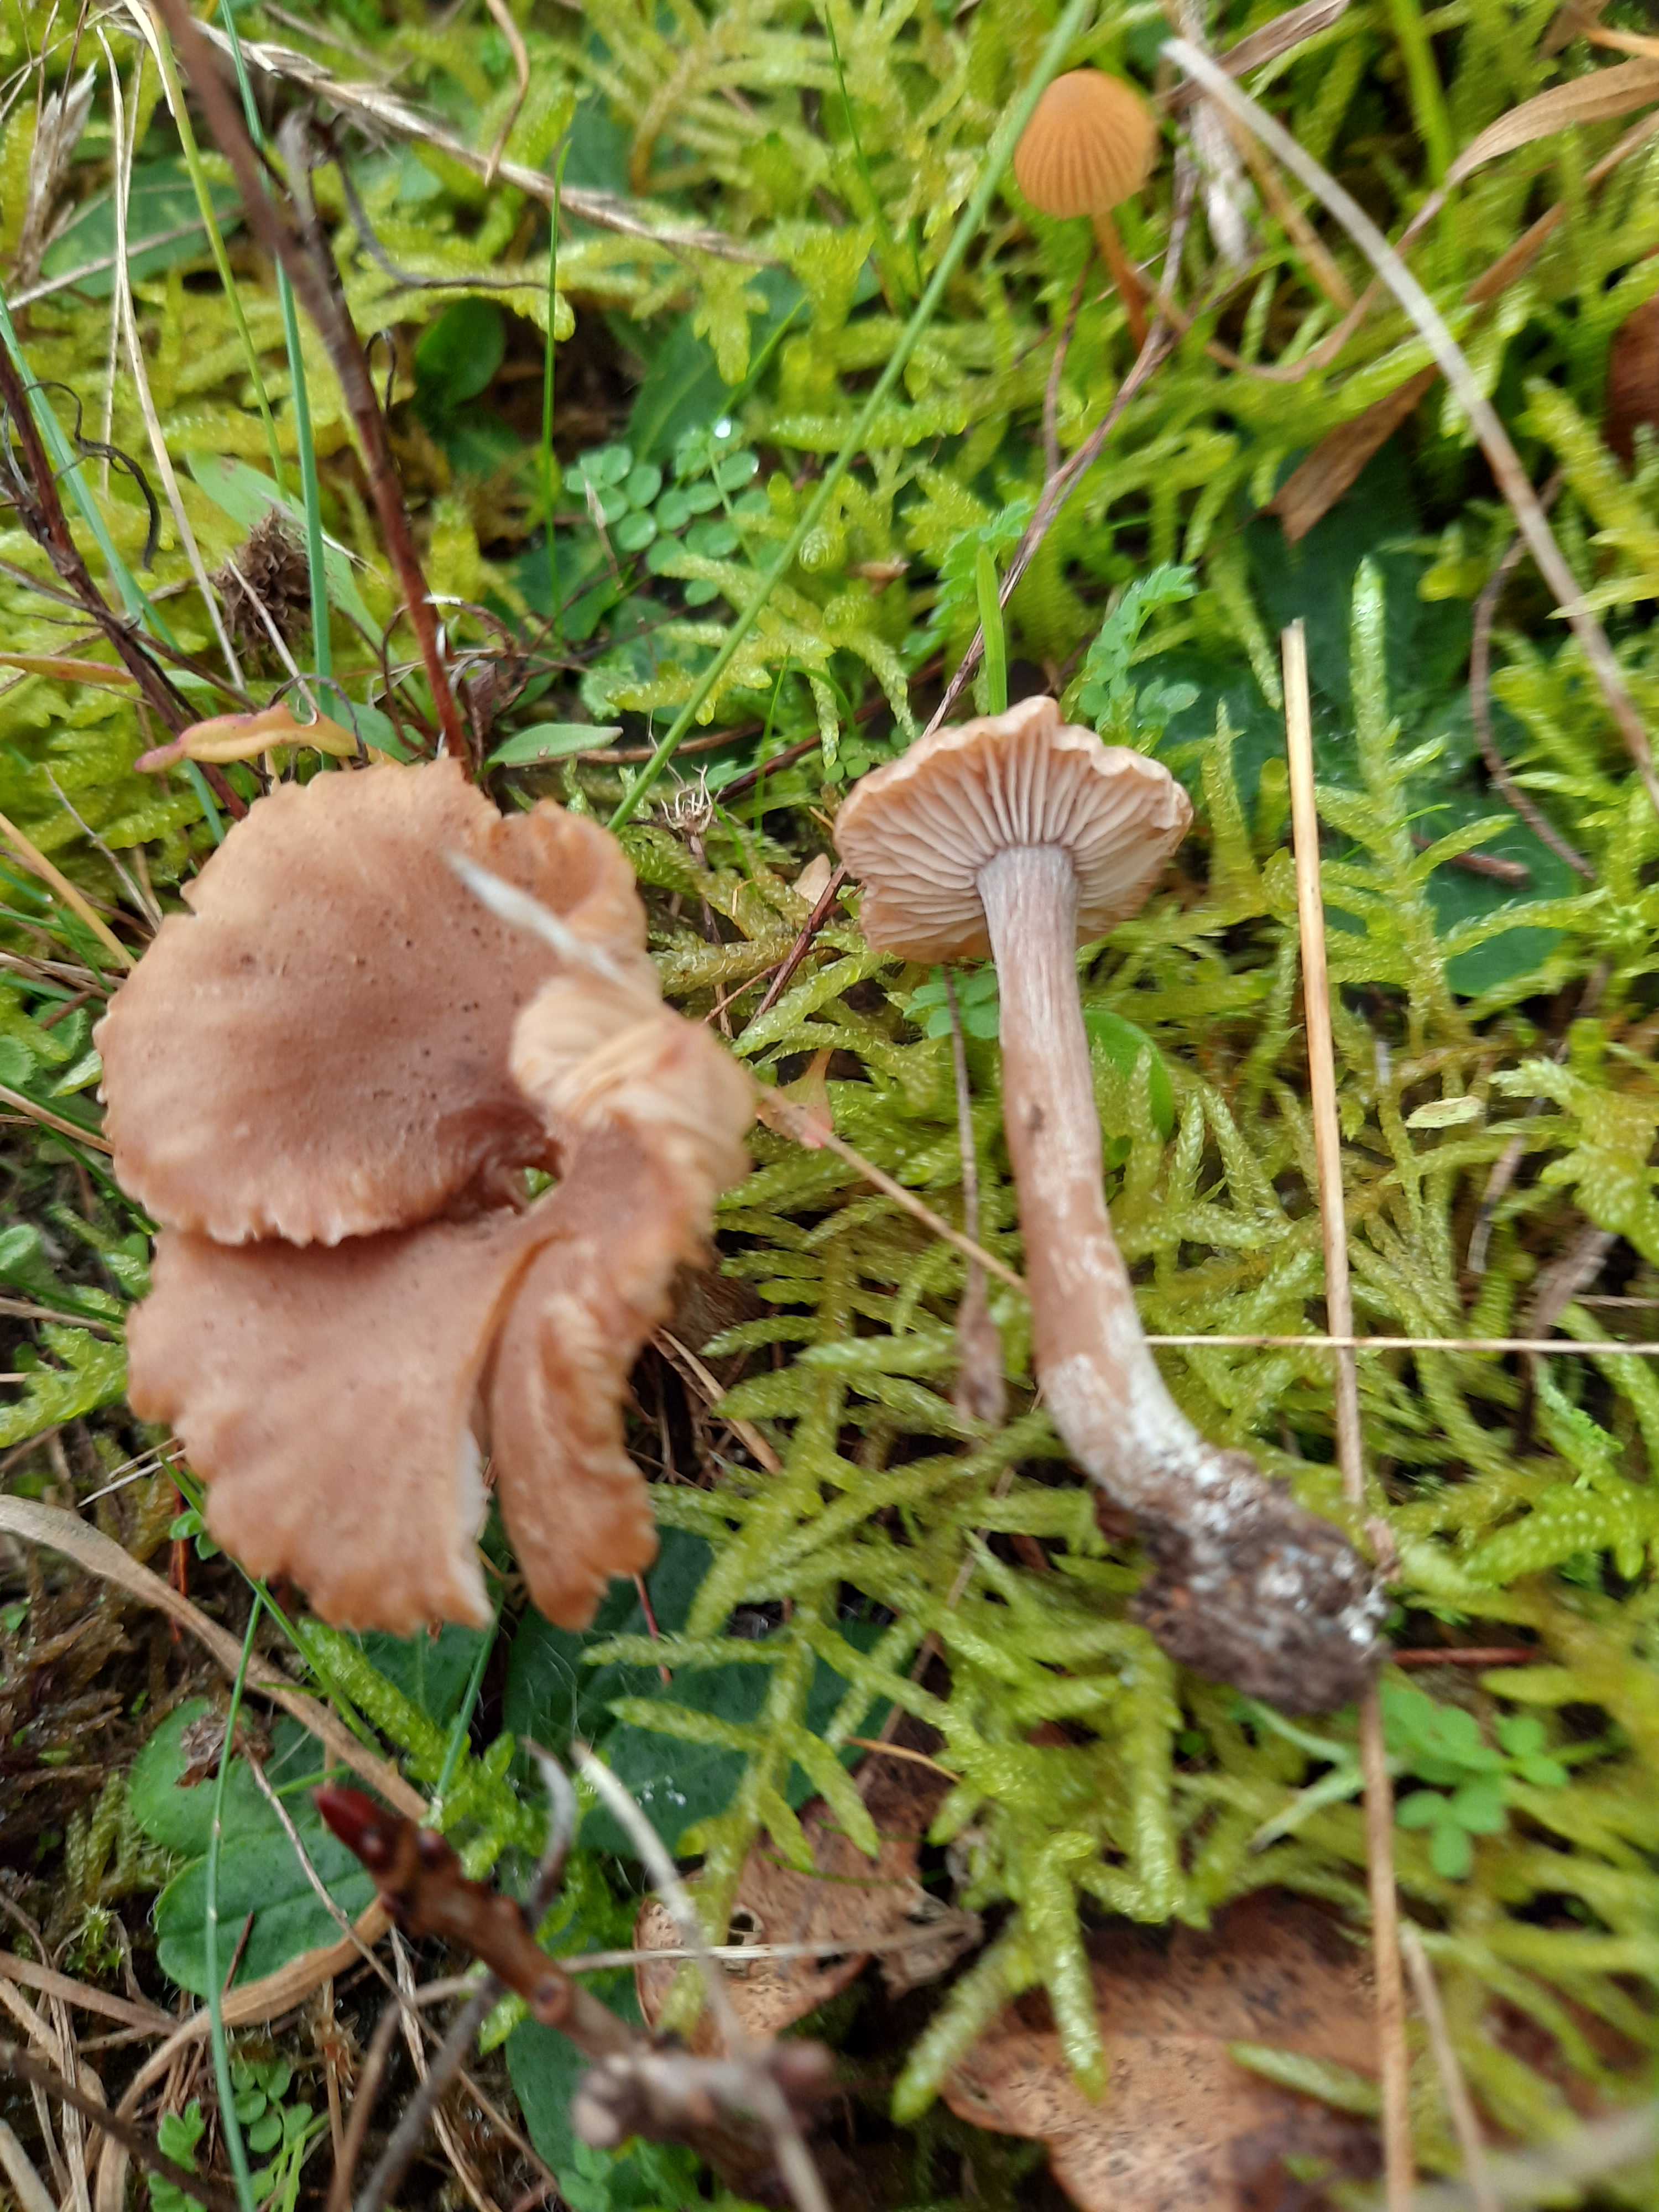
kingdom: Fungi
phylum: Basidiomycota
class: Agaricomycetes
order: Agaricales
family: Callistosporiaceae
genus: Pseudolaccaria
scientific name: Pseudolaccaria pachyphylla
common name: hvælvet tykblad
